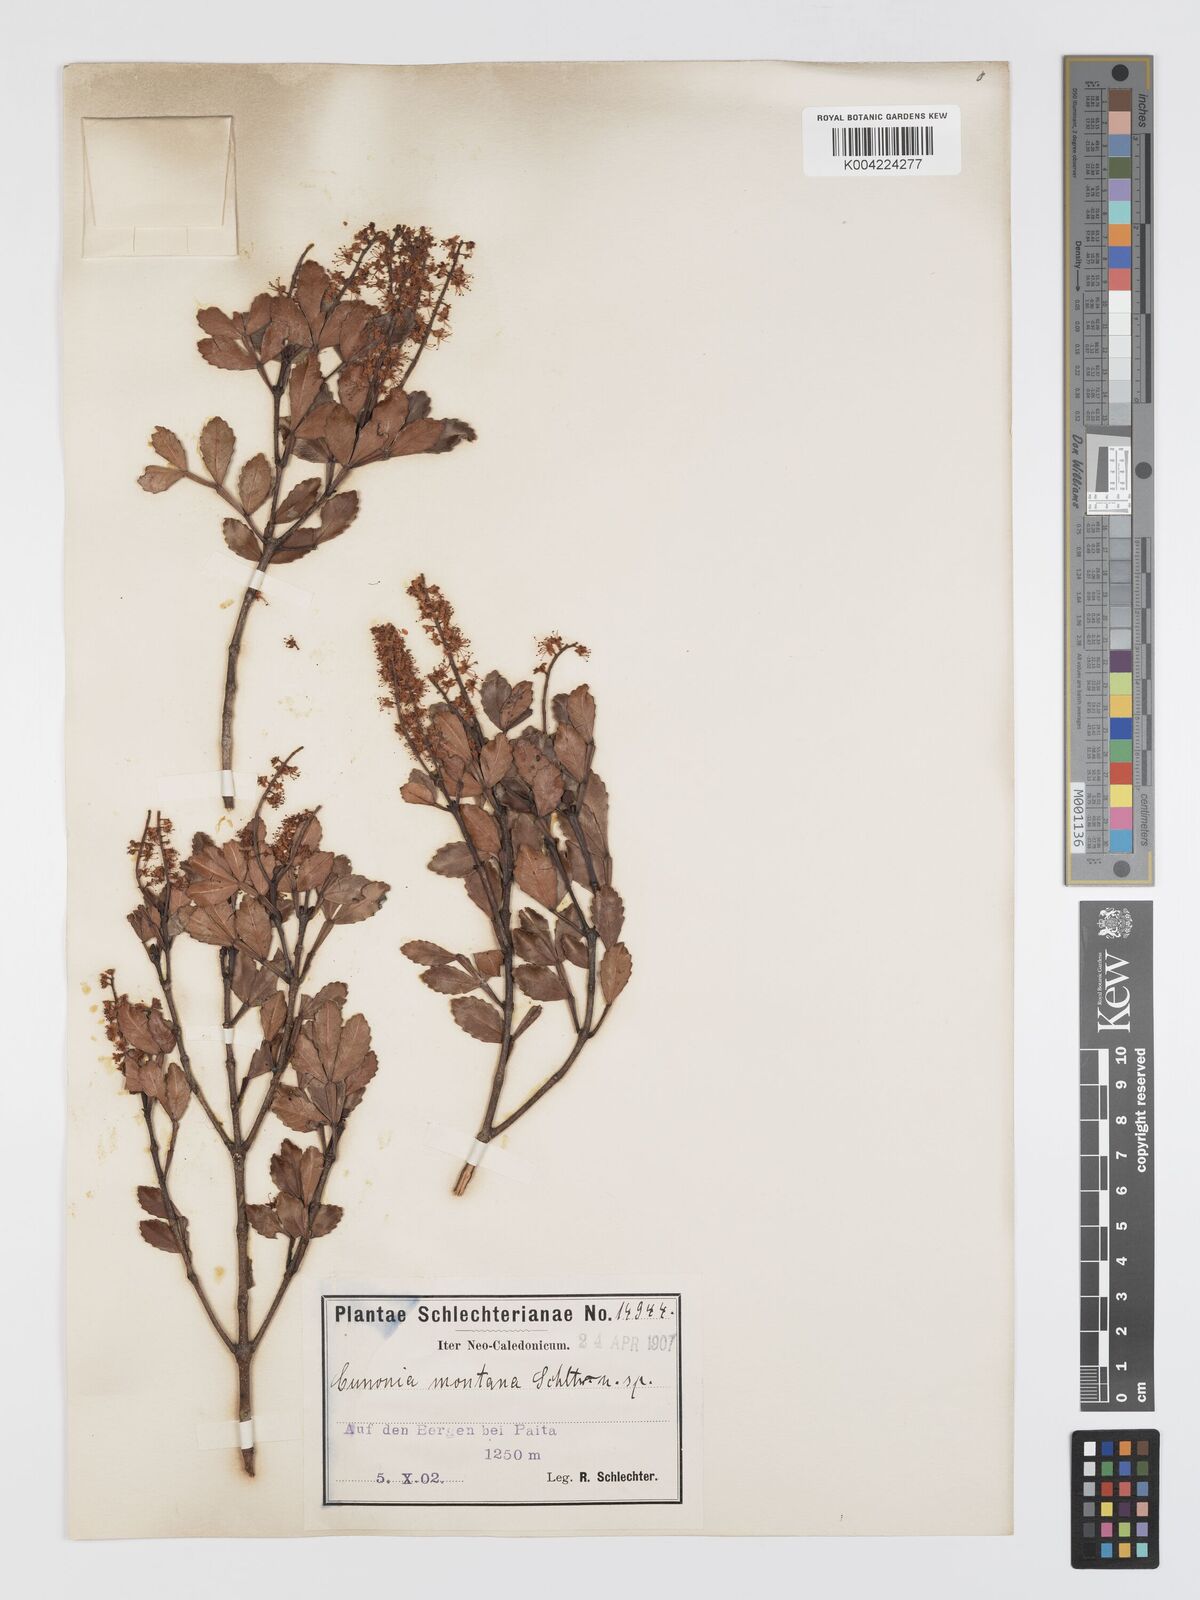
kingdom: Plantae
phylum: Tracheophyta
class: Magnoliopsida
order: Oxalidales
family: Cunoniaceae
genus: Cunonia
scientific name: Cunonia montana
